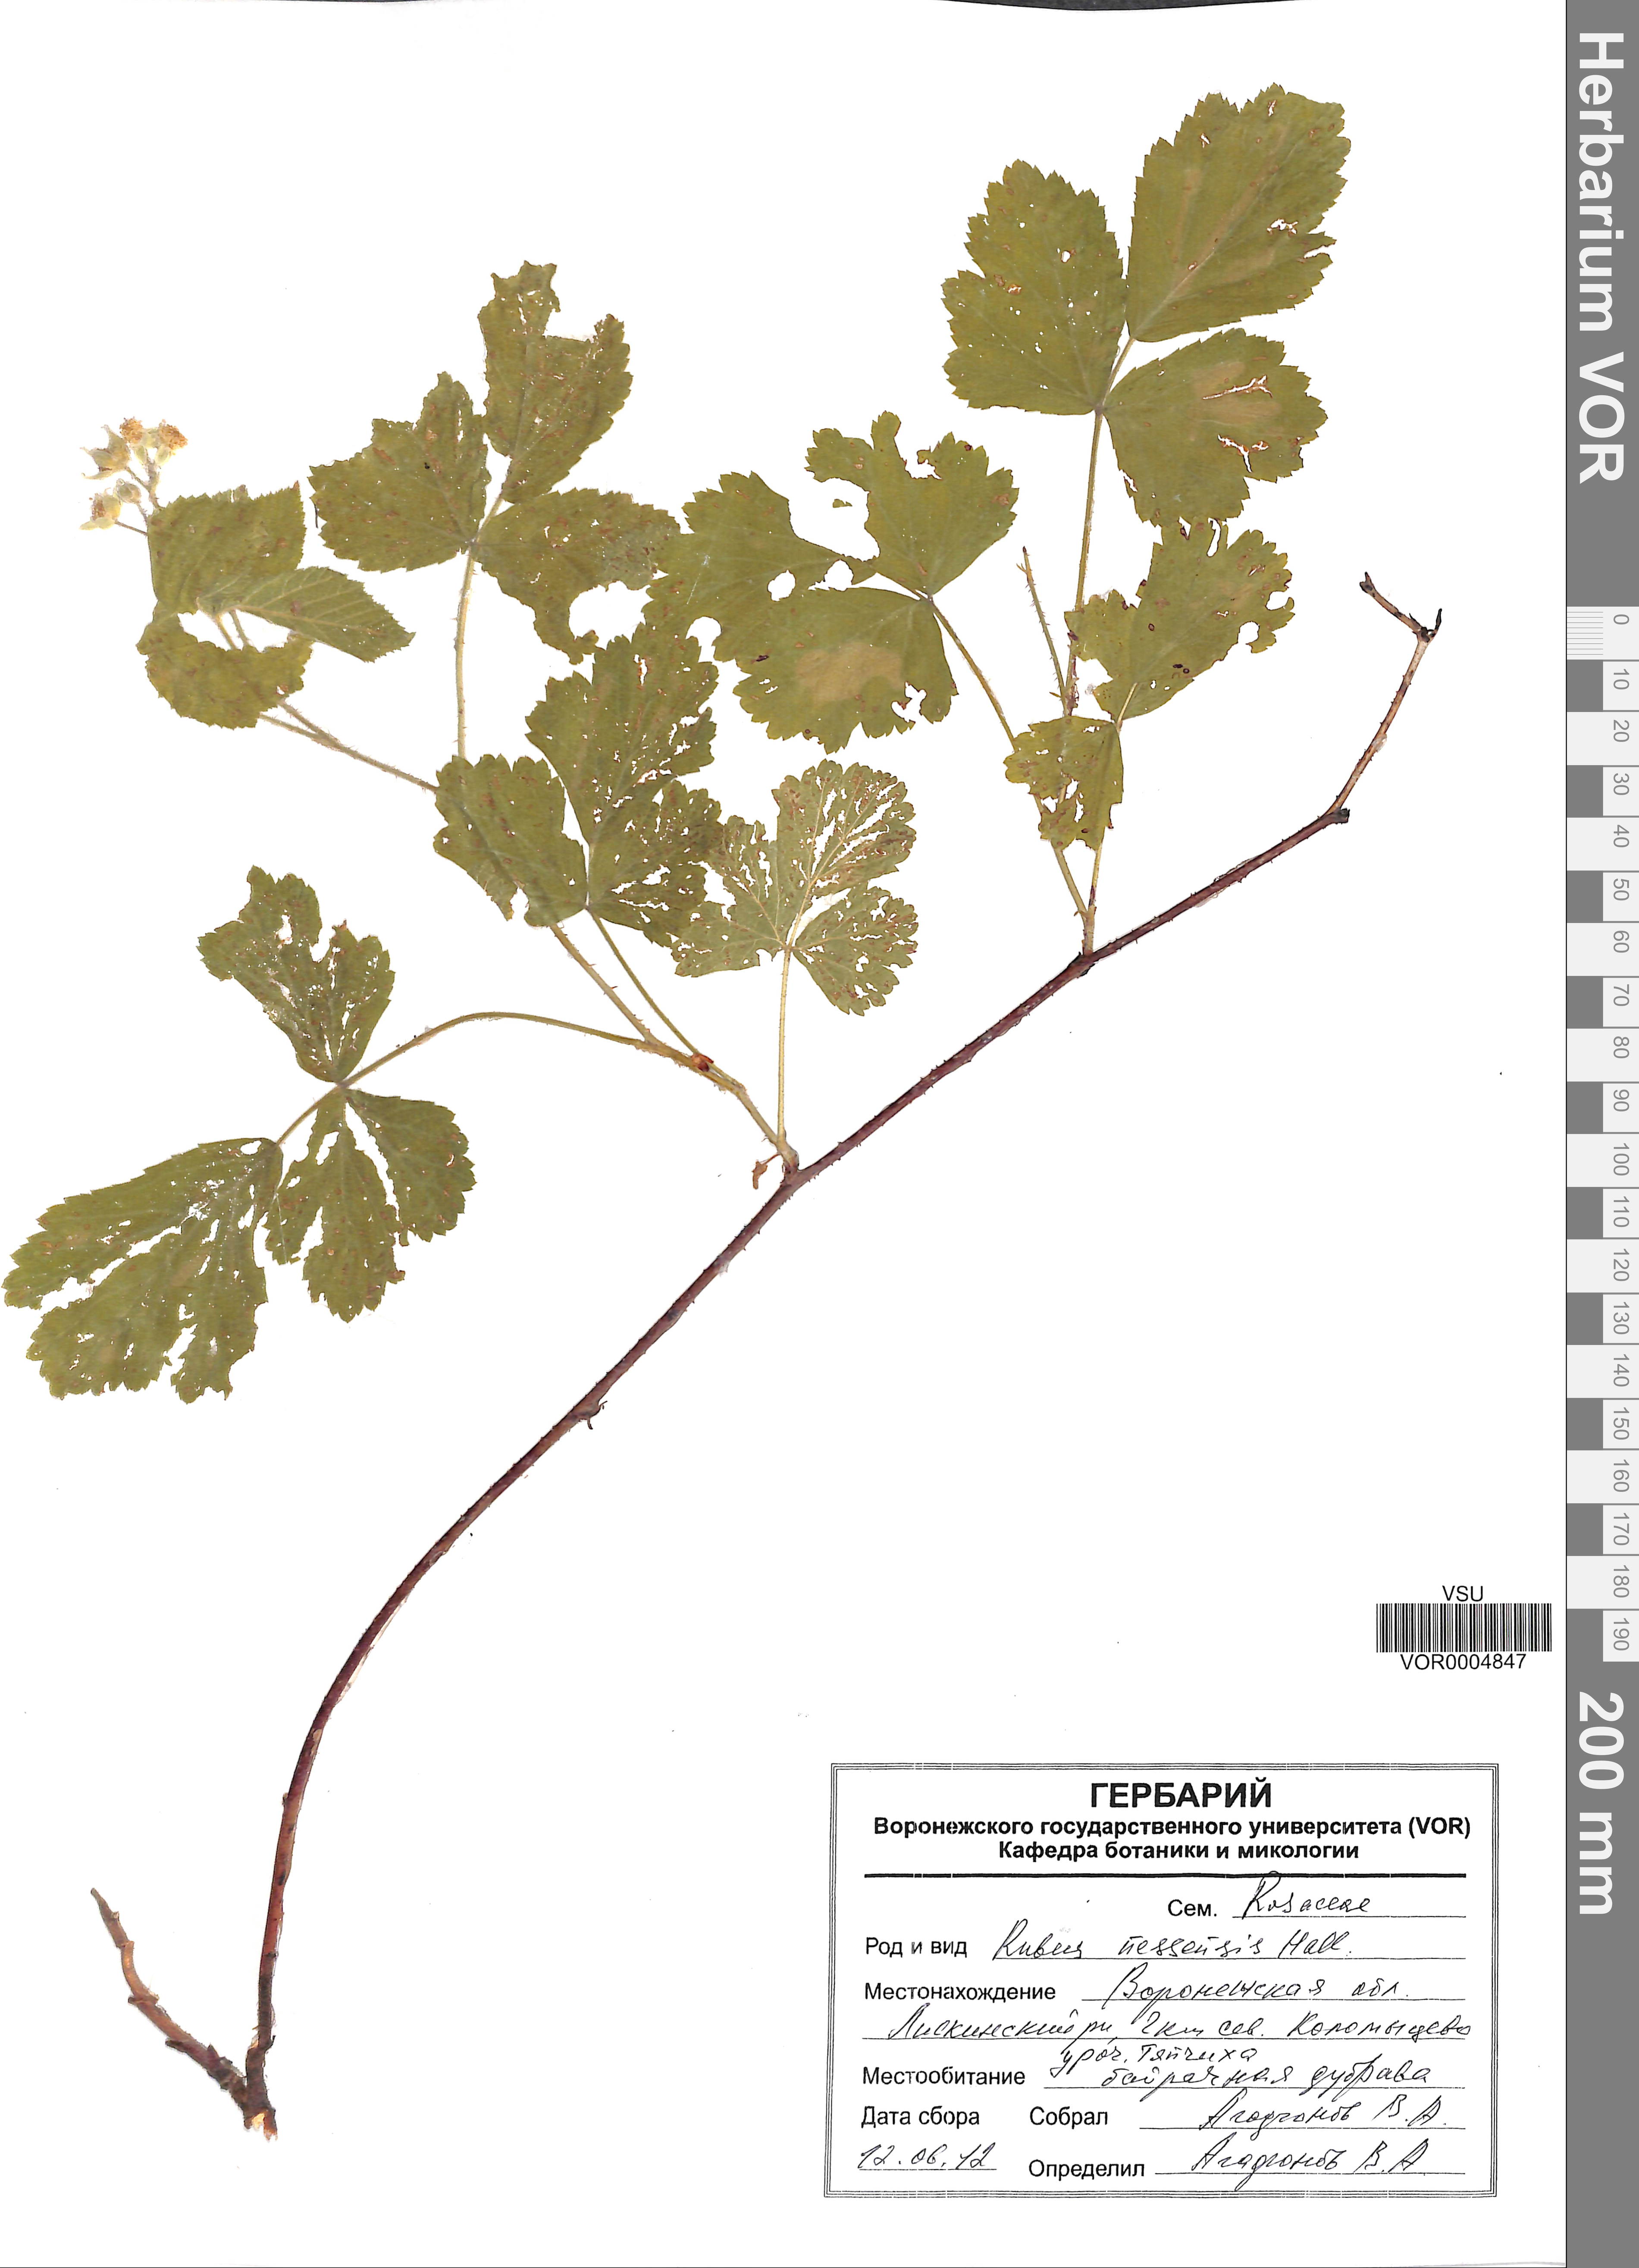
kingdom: Plantae
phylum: Tracheophyta
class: Magnoliopsida
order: Rosales
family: Rosaceae
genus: Rubus
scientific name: Rubus polonicus
